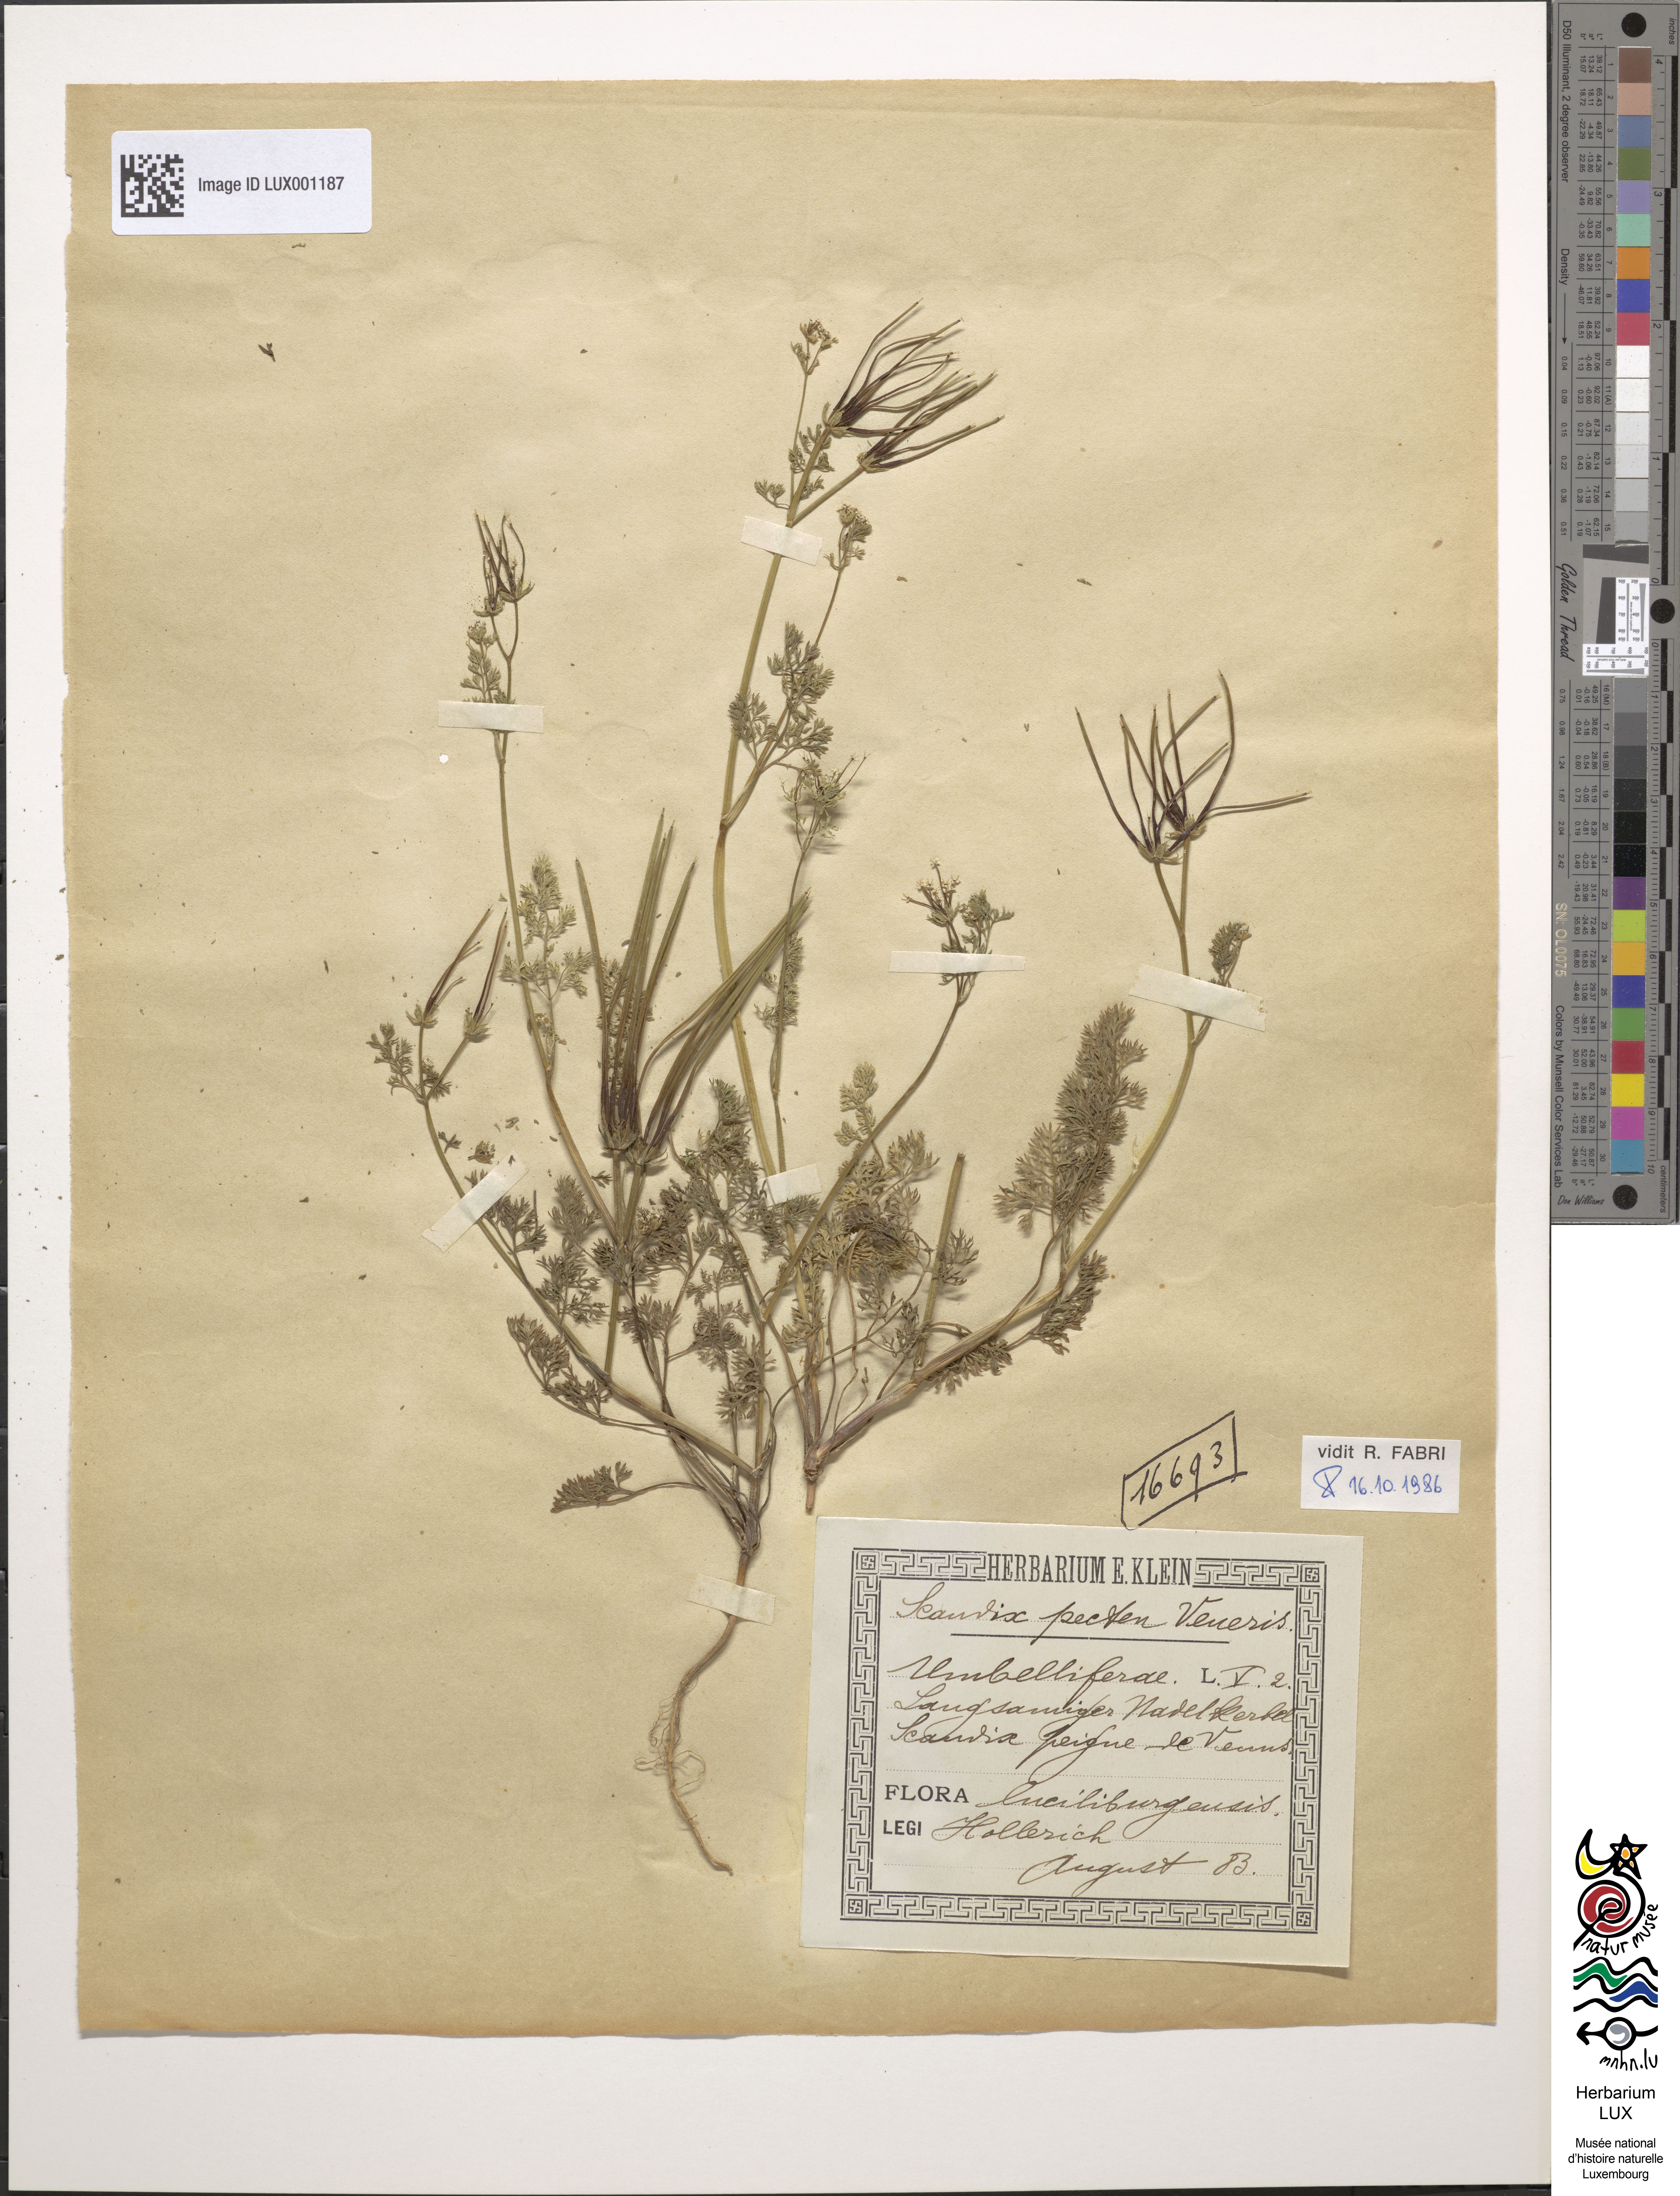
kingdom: Plantae
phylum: Tracheophyta
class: Magnoliopsida
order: Apiales
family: Apiaceae
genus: Scandix
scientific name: Scandix pecten-veneris
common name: Shepherd's-needle
